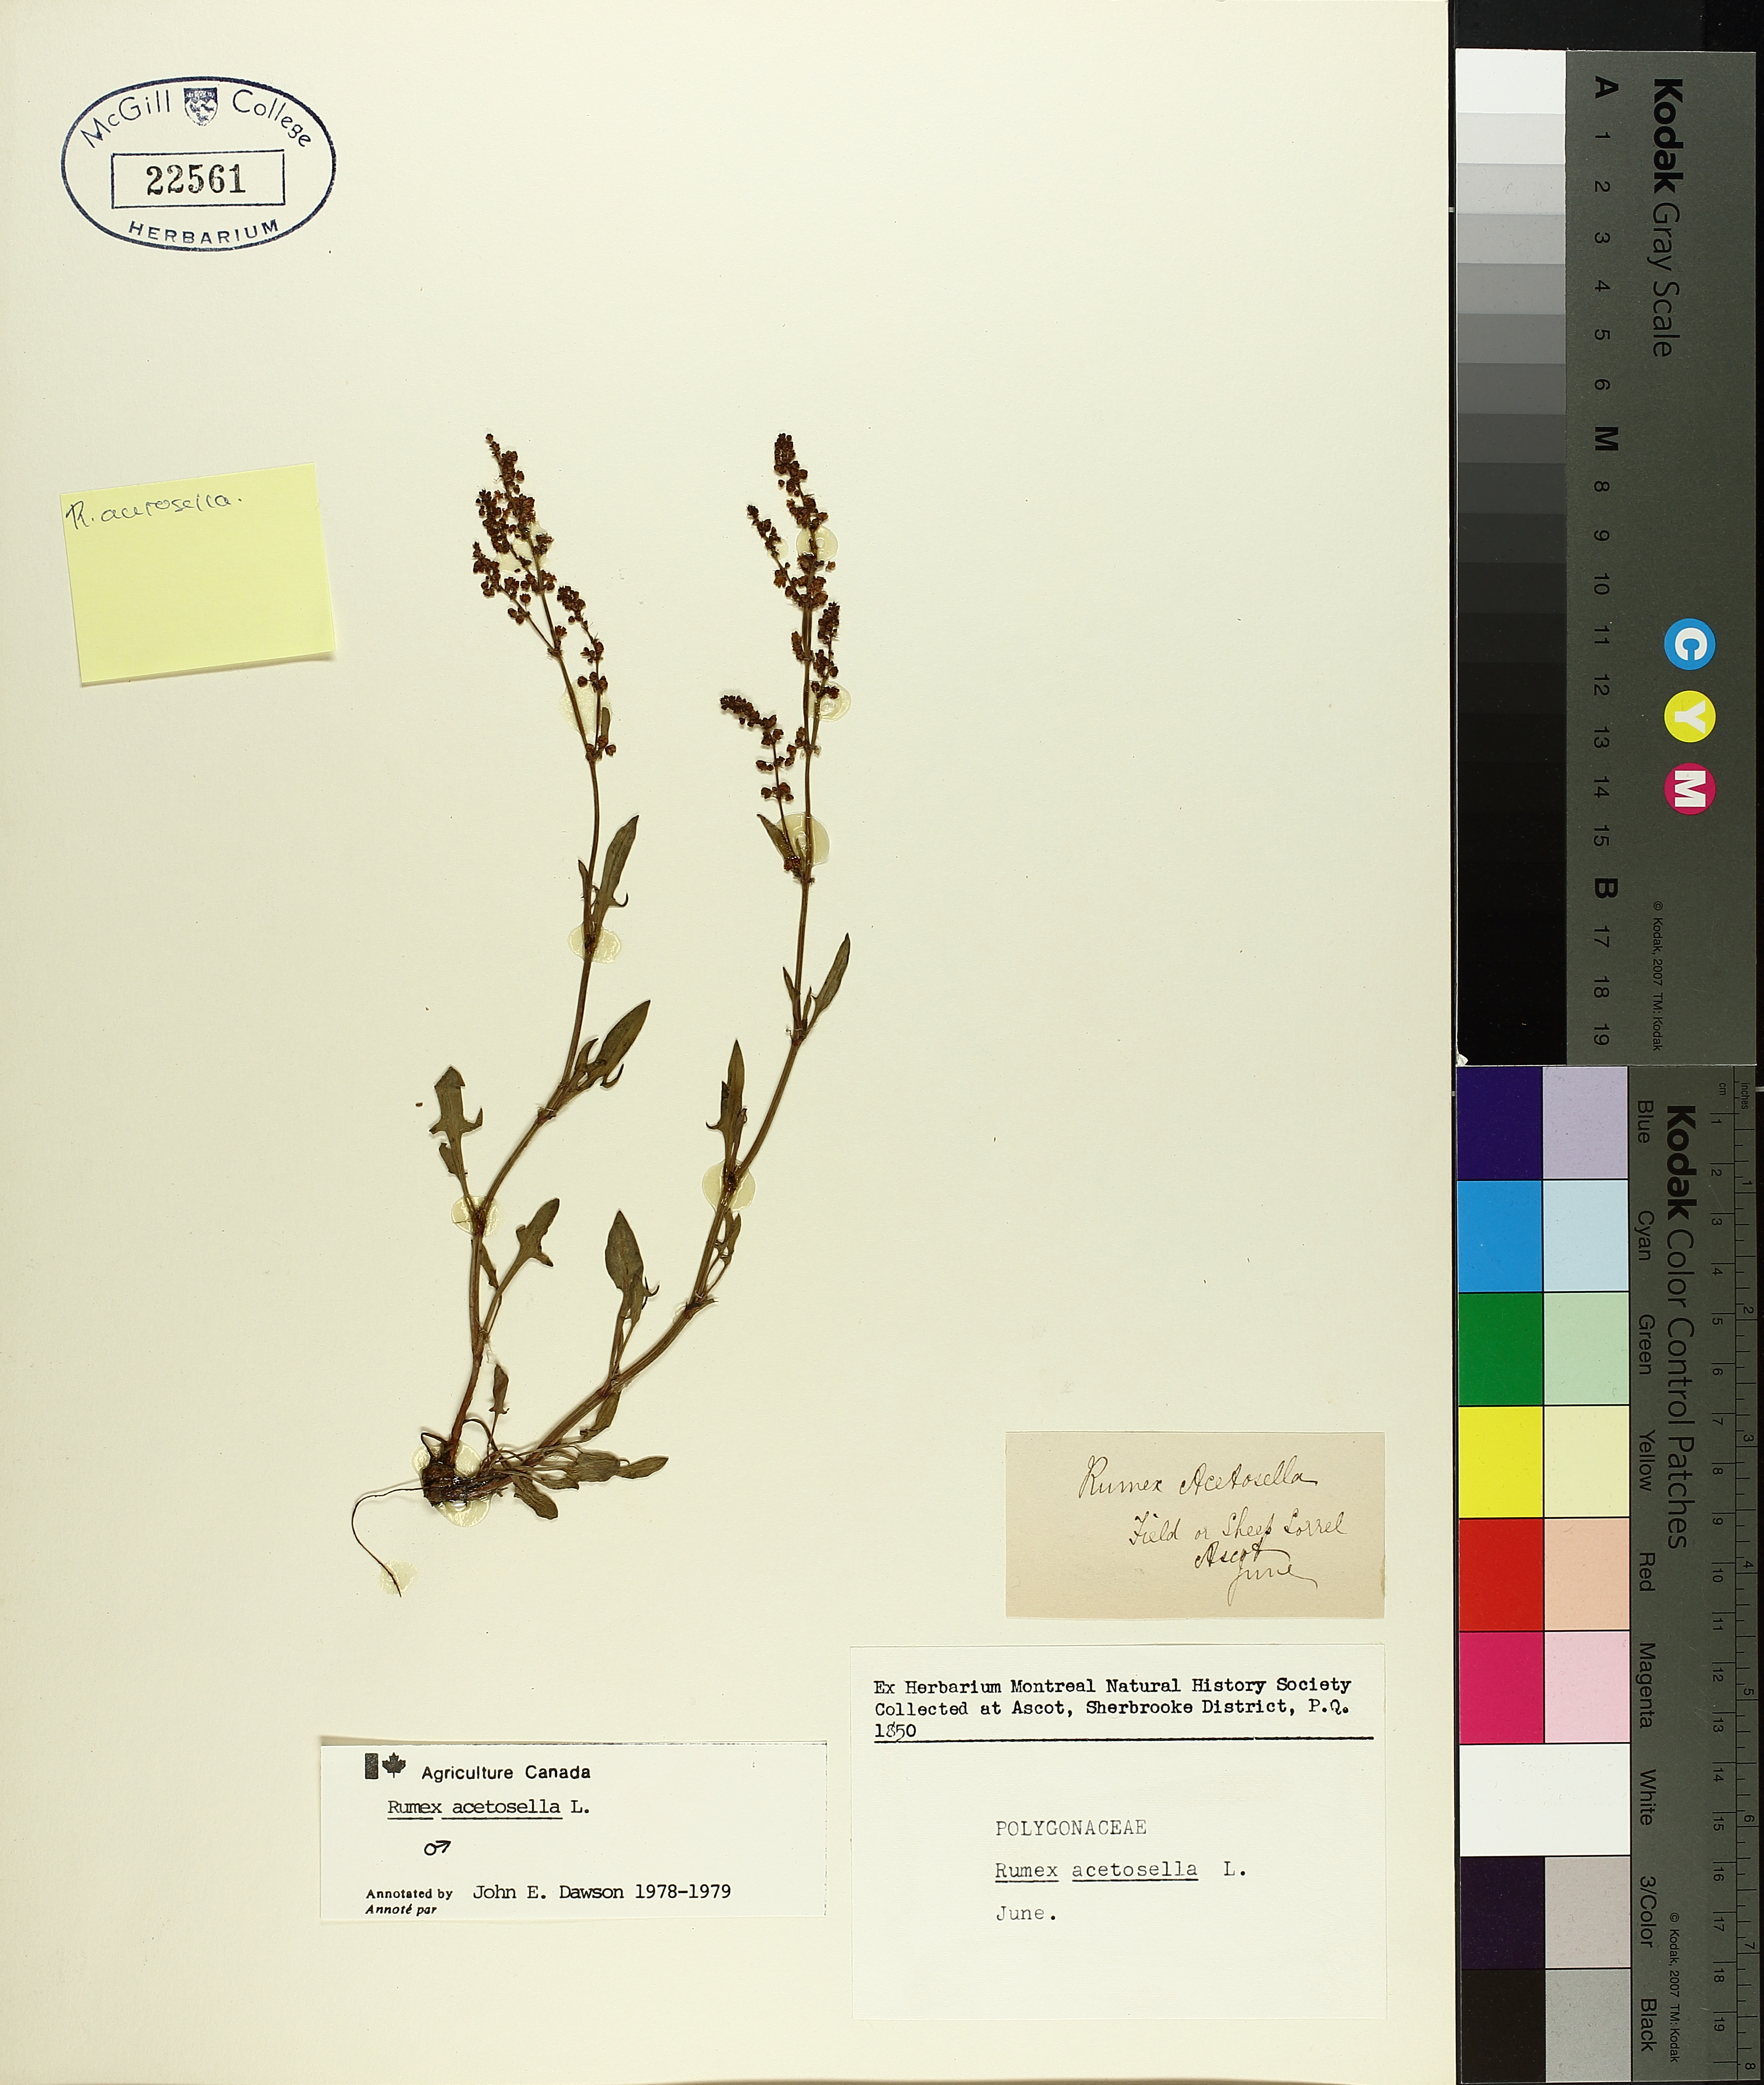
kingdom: Plantae
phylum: Tracheophyta
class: Magnoliopsida
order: Caryophyllales
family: Polygonaceae
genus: Rumex
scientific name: Rumex acetosella
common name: Common sheep sorrel
